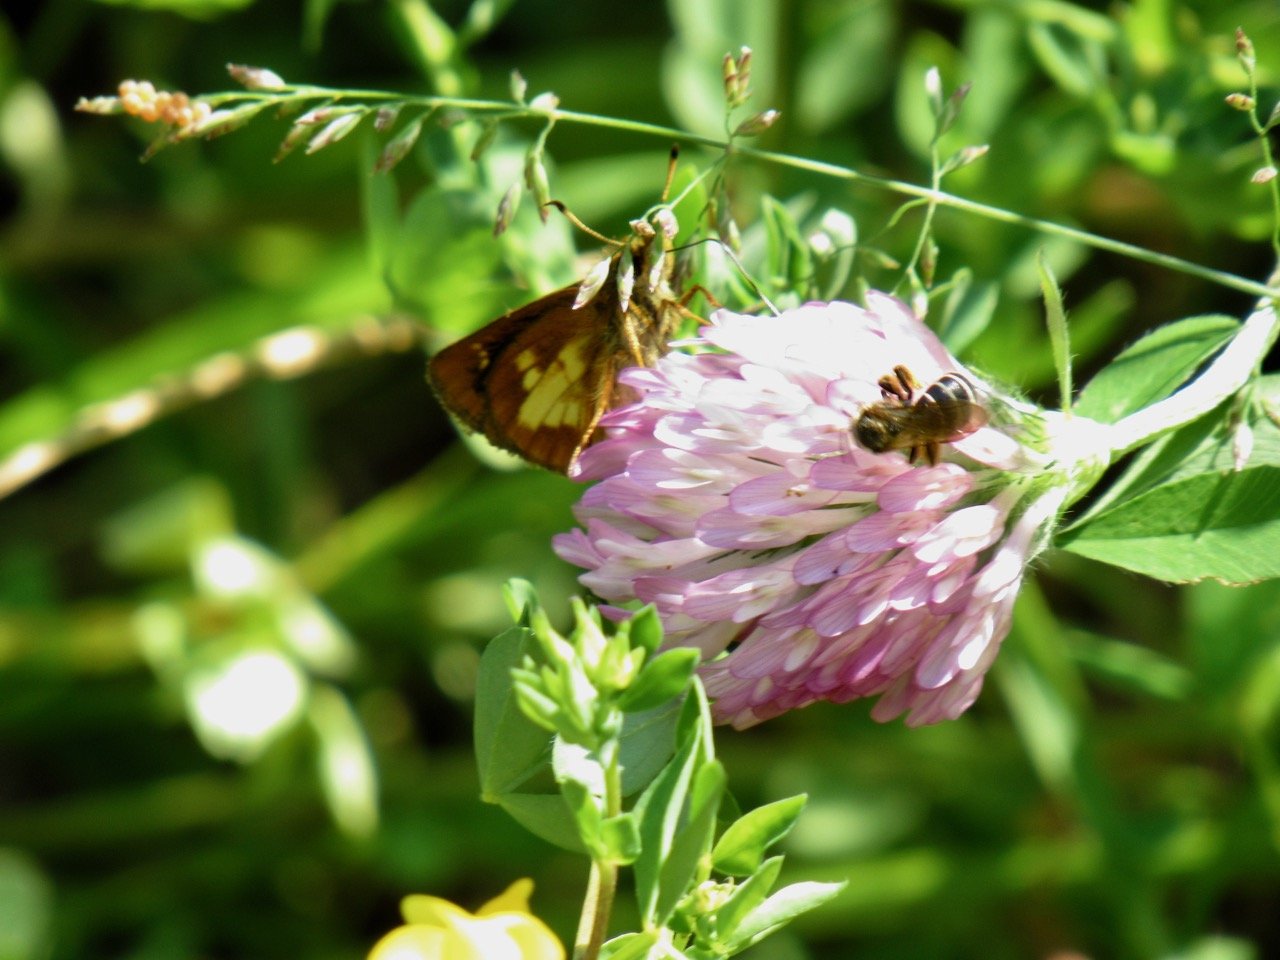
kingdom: Animalia
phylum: Arthropoda
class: Insecta
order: Lepidoptera
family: Hesperiidae
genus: Poanes
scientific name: Poanes massasoit
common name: Mulberry Wing
